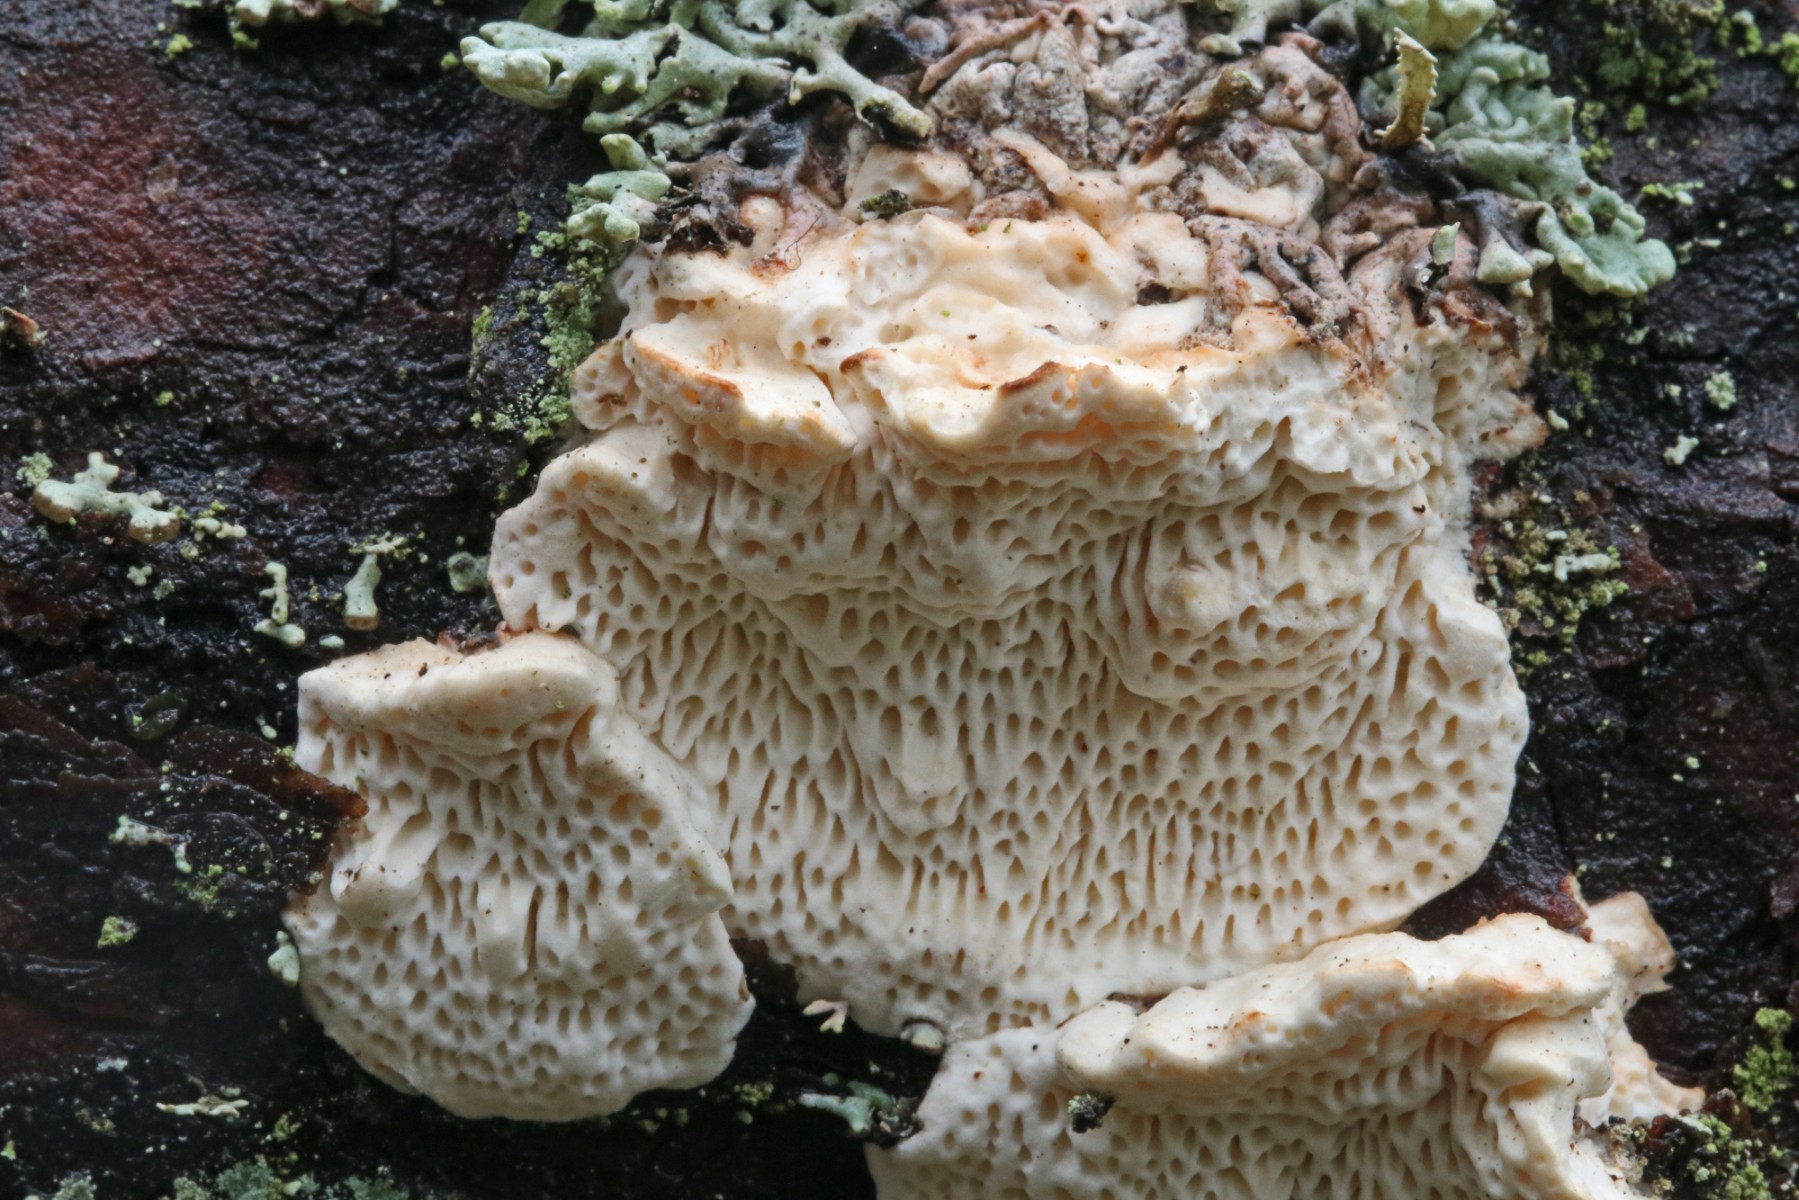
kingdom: Fungi
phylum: Basidiomycota
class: Agaricomycetes
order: Polyporales
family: Fomitopsidaceae
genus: Fomitopsis
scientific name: Fomitopsis
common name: fyrre-skiveporesvamp
